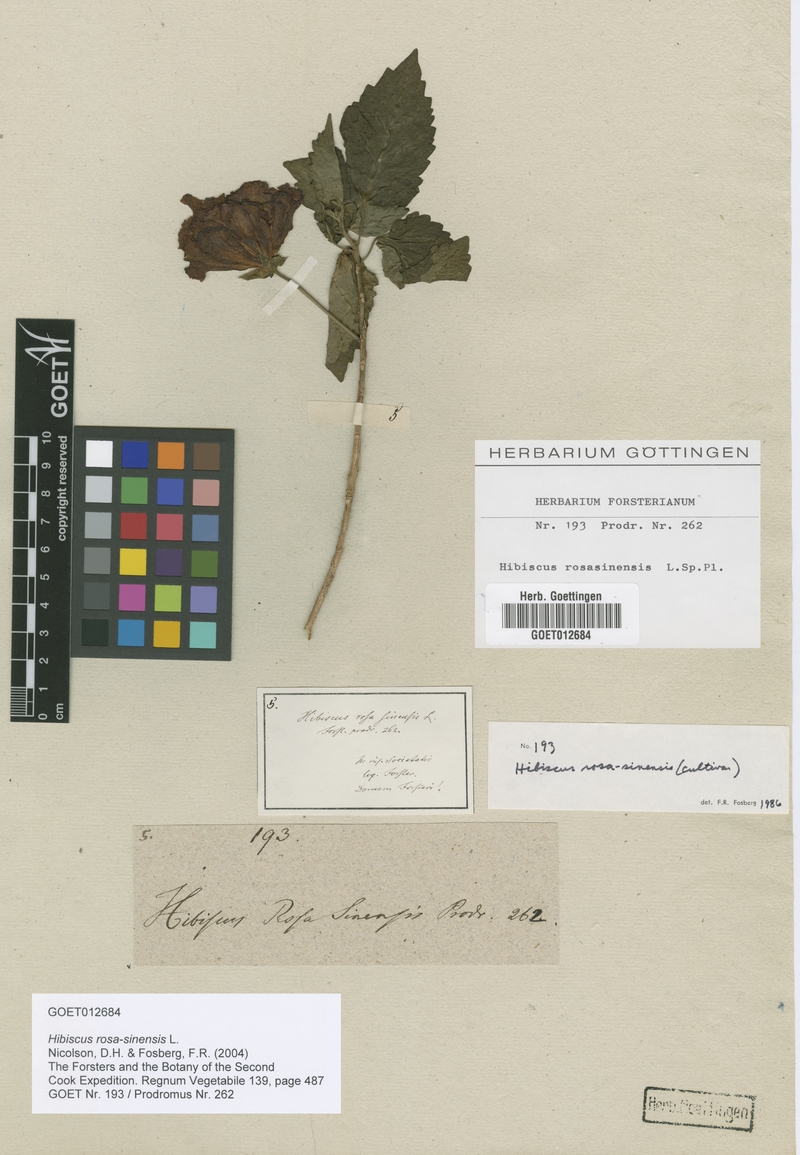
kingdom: Plantae
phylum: Tracheophyta
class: Magnoliopsida
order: Malvales
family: Malvaceae
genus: Hibiscus
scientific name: Hibiscus rosa-sinensis
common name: Hibiscus
